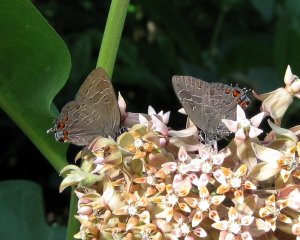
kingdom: Animalia
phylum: Arthropoda
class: Insecta
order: Lepidoptera
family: Lycaenidae
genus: Satyrium
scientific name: Satyrium liparops
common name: Striped Hairstreak
